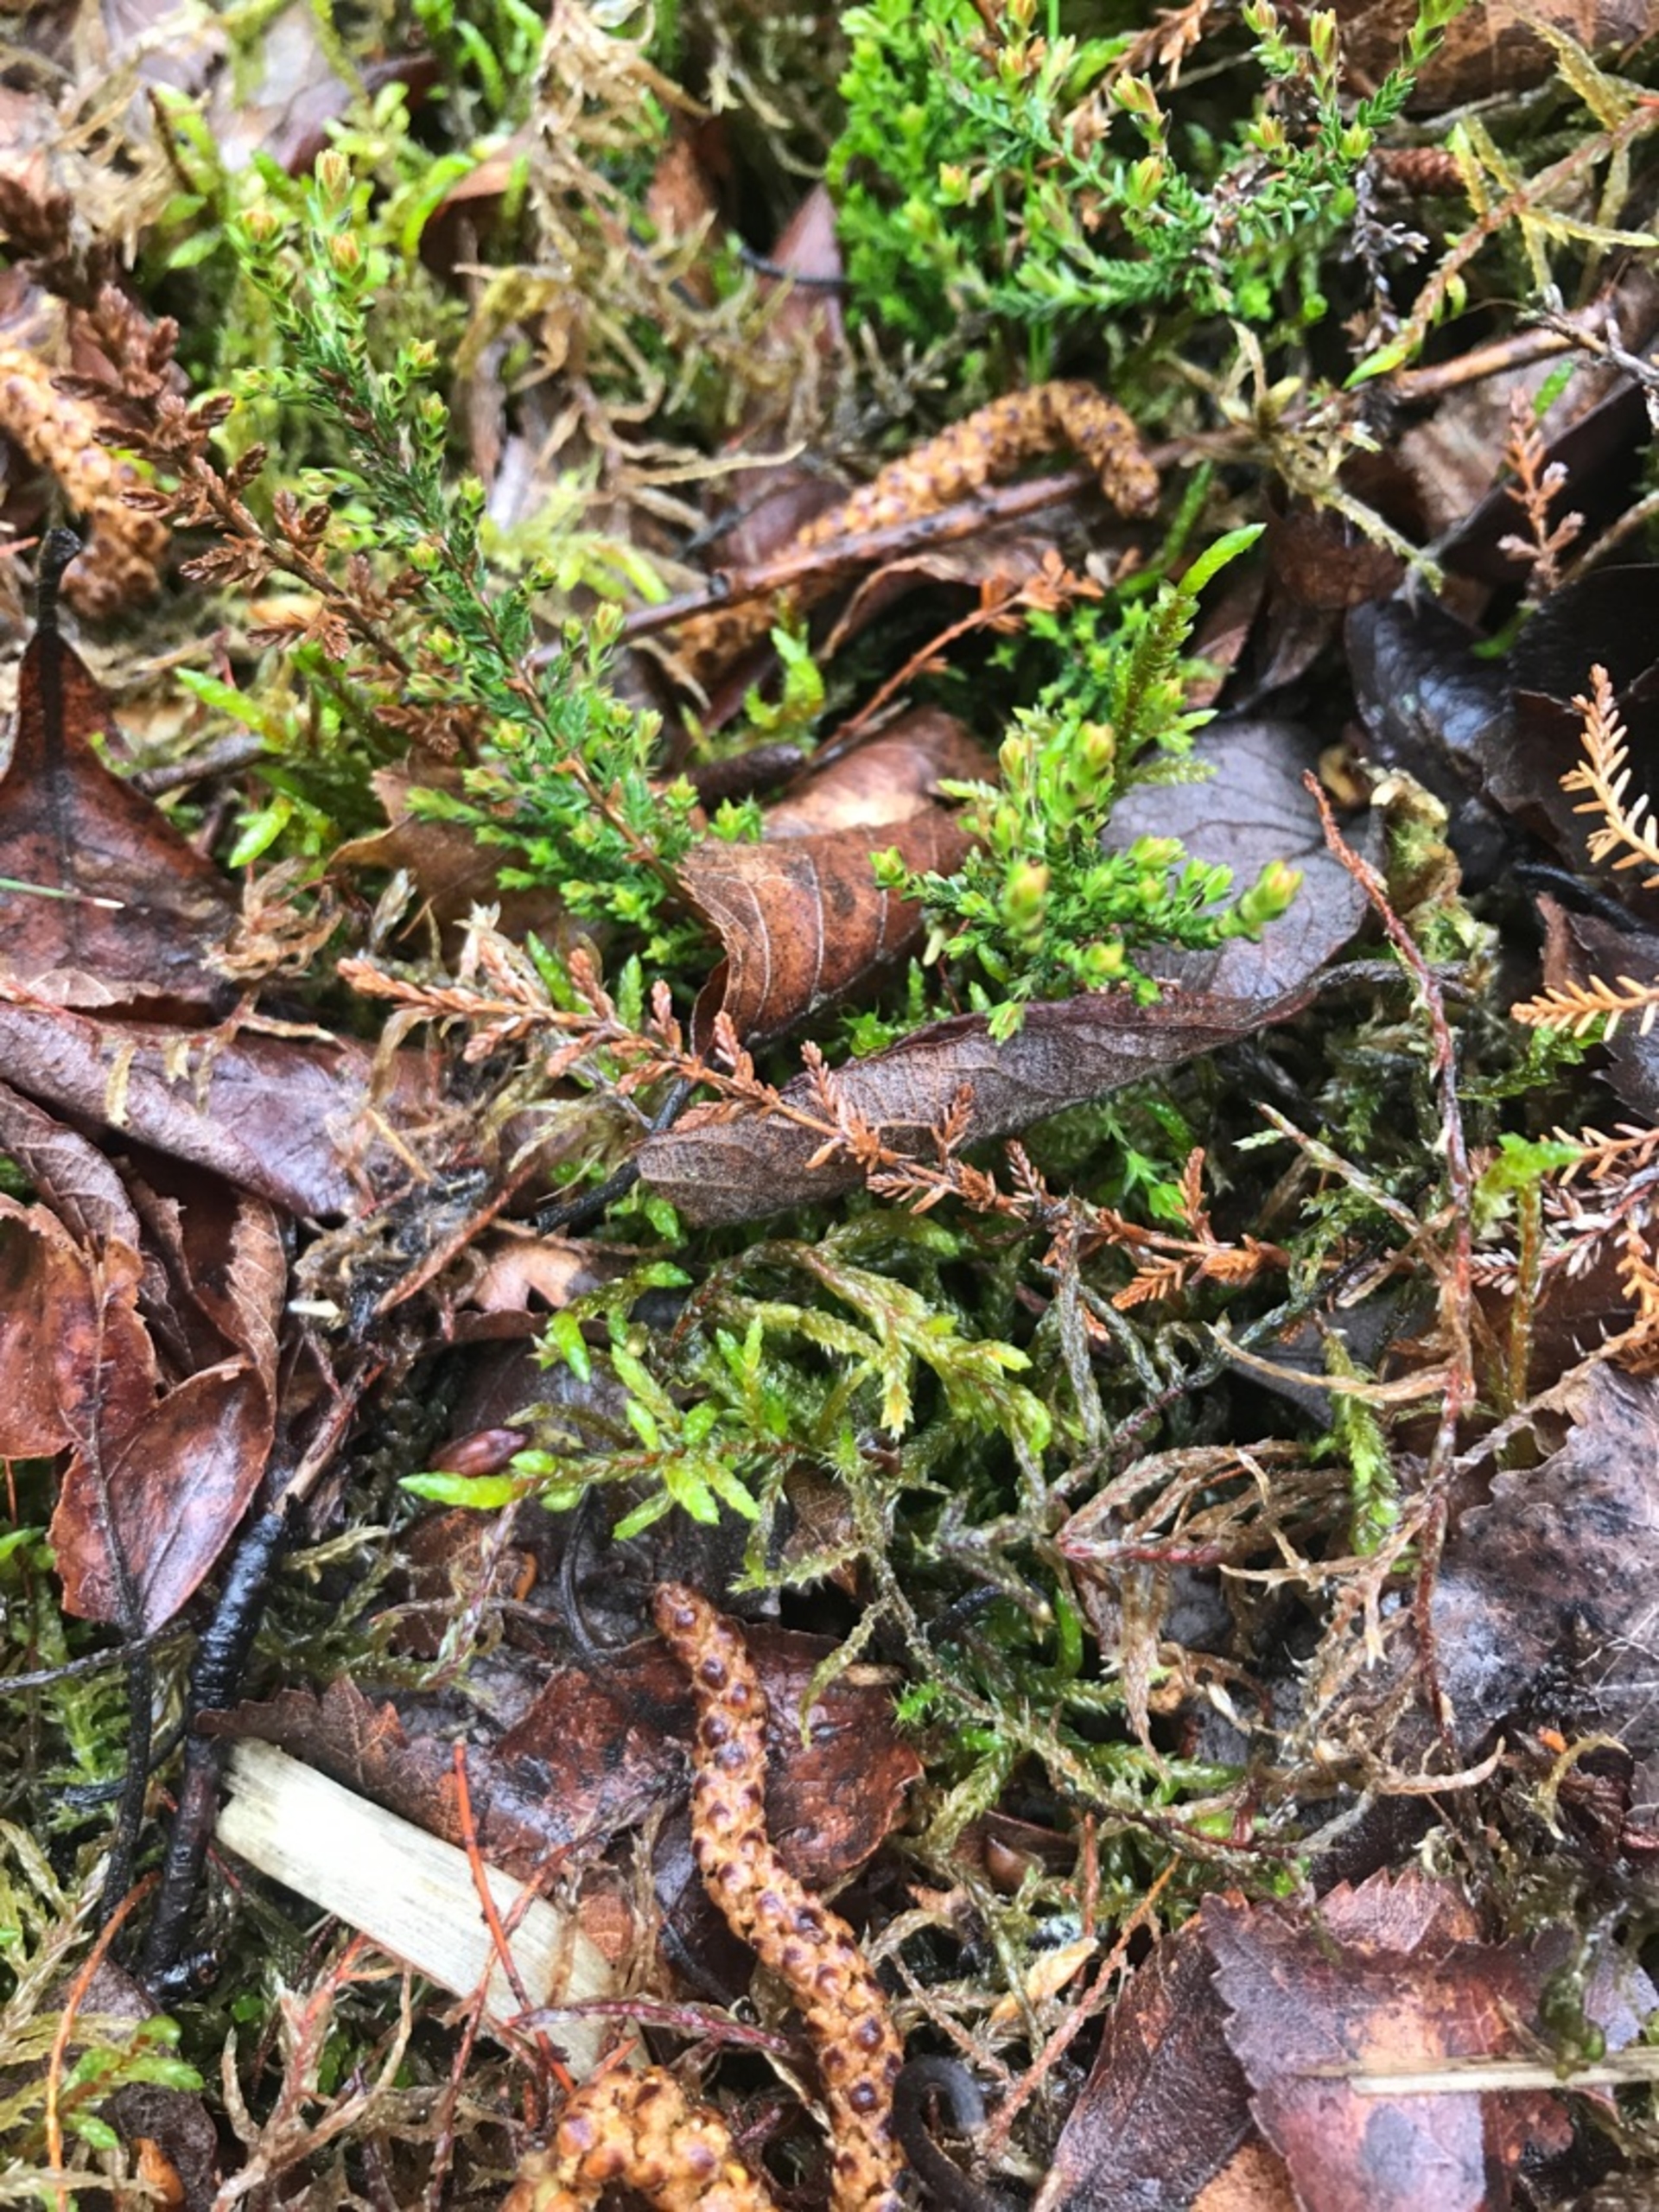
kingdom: Plantae
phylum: Tracheophyta
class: Magnoliopsida
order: Ericales
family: Ericaceae
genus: Calluna
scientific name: Calluna vulgaris
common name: Hedelyng
